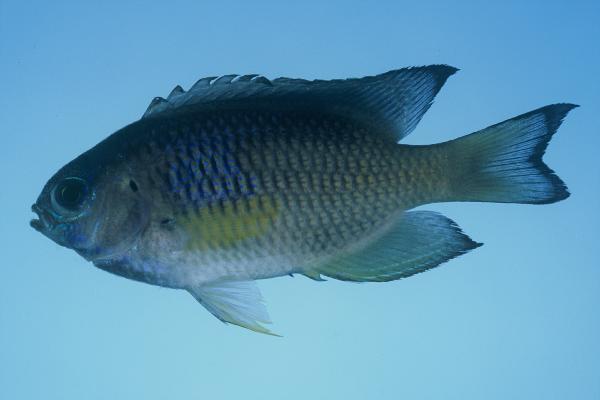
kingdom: Animalia
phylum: Chordata
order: Perciformes
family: Pomacentridae
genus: Pomacentrus
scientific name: Pomacentrus pavo
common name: Sapphire damsel
